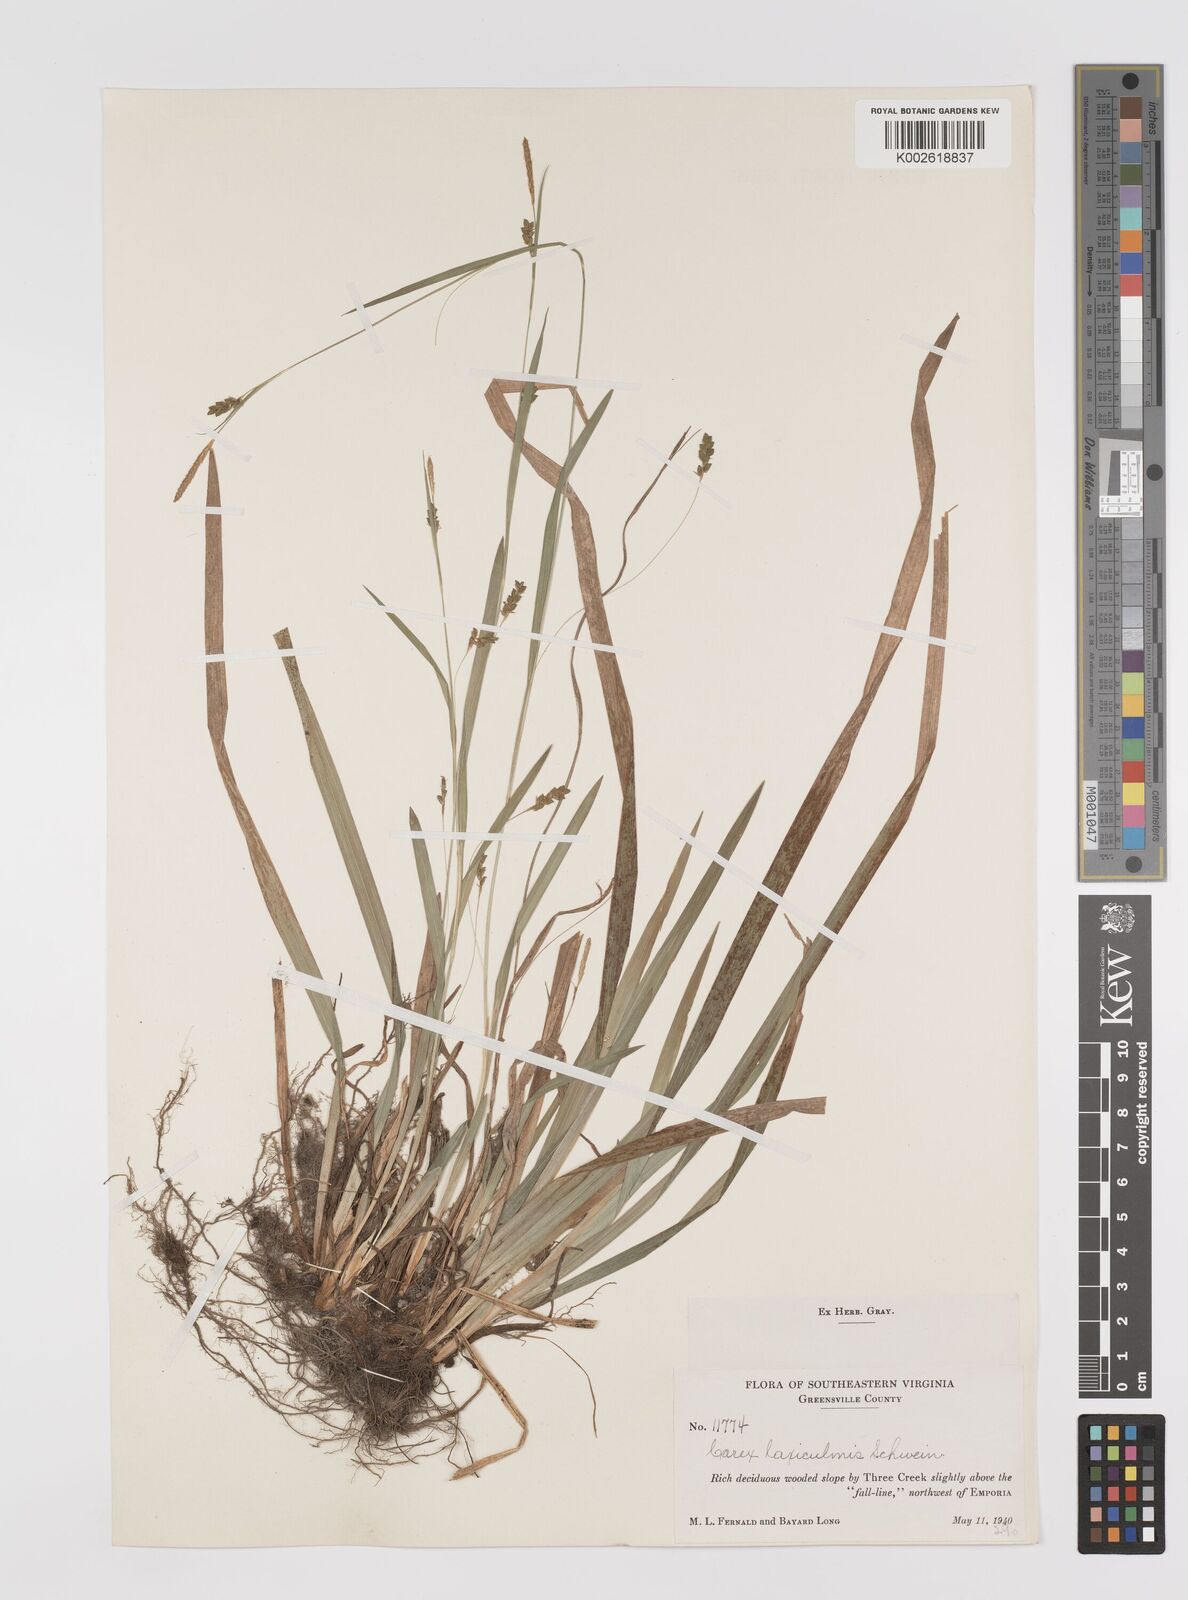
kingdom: Plantae
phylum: Tracheophyta
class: Liliopsida
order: Poales
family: Cyperaceae
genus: Carex
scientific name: Carex laxiculmis
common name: Spreading sedge
